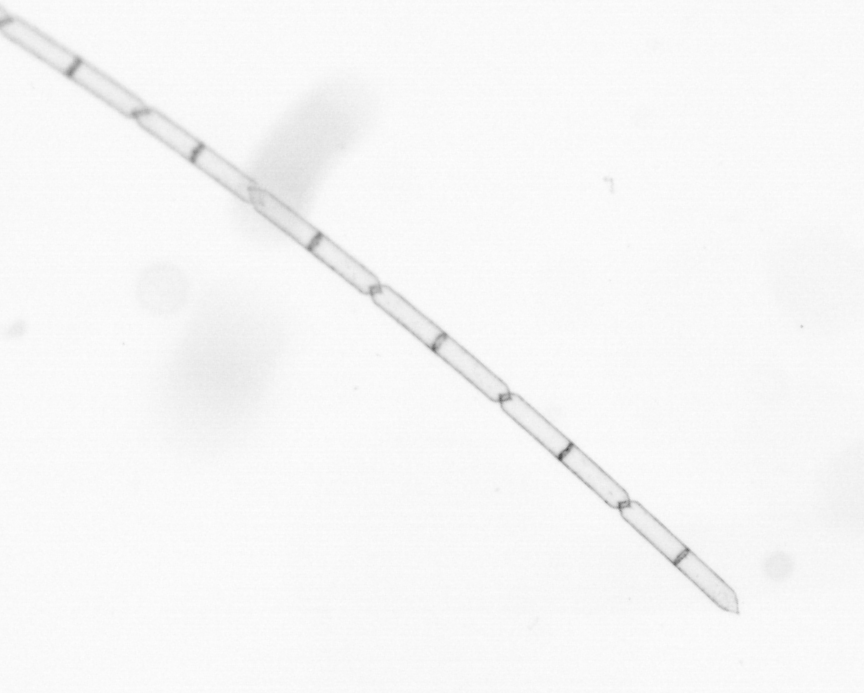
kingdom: Chromista
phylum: Ochrophyta
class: Bacillariophyceae
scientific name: Bacillariophyceae
